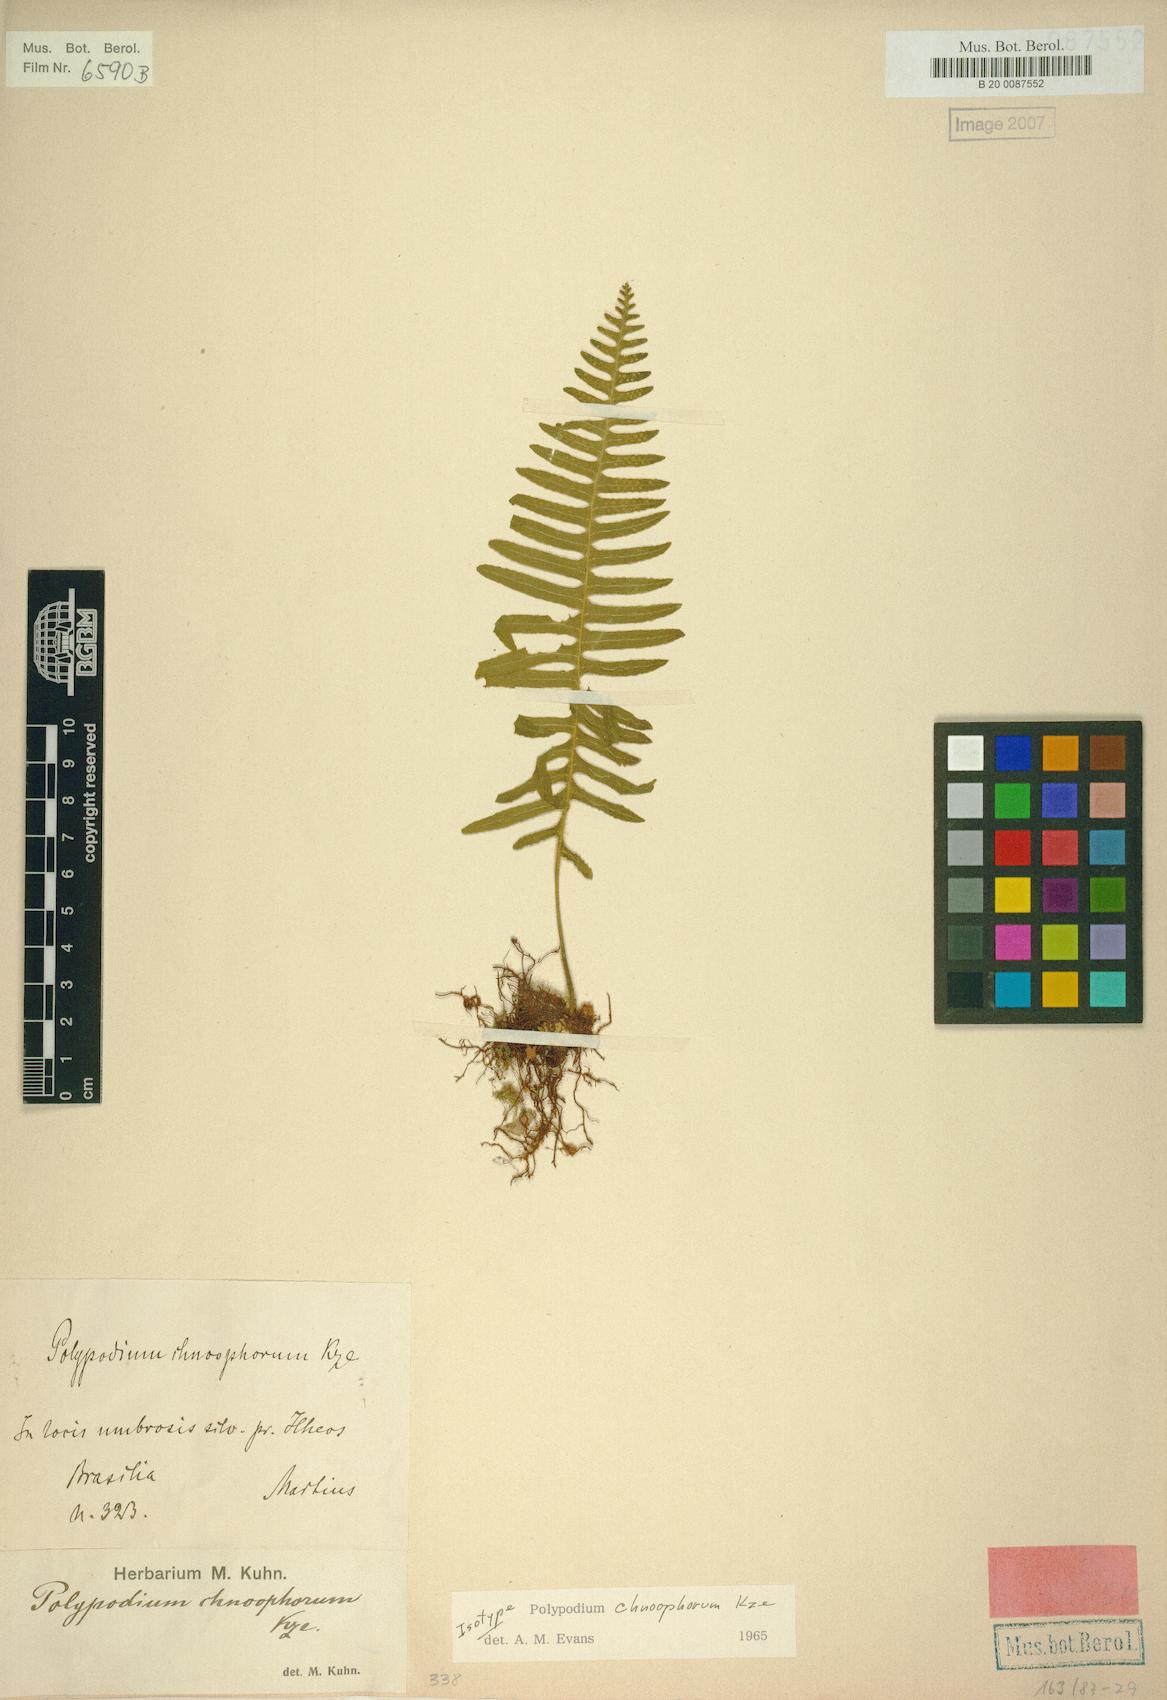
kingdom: Plantae
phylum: Tracheophyta
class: Polypodiopsida
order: Polypodiales
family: Polypodiaceae
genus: Pecluma
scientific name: Pecluma chnoophora
